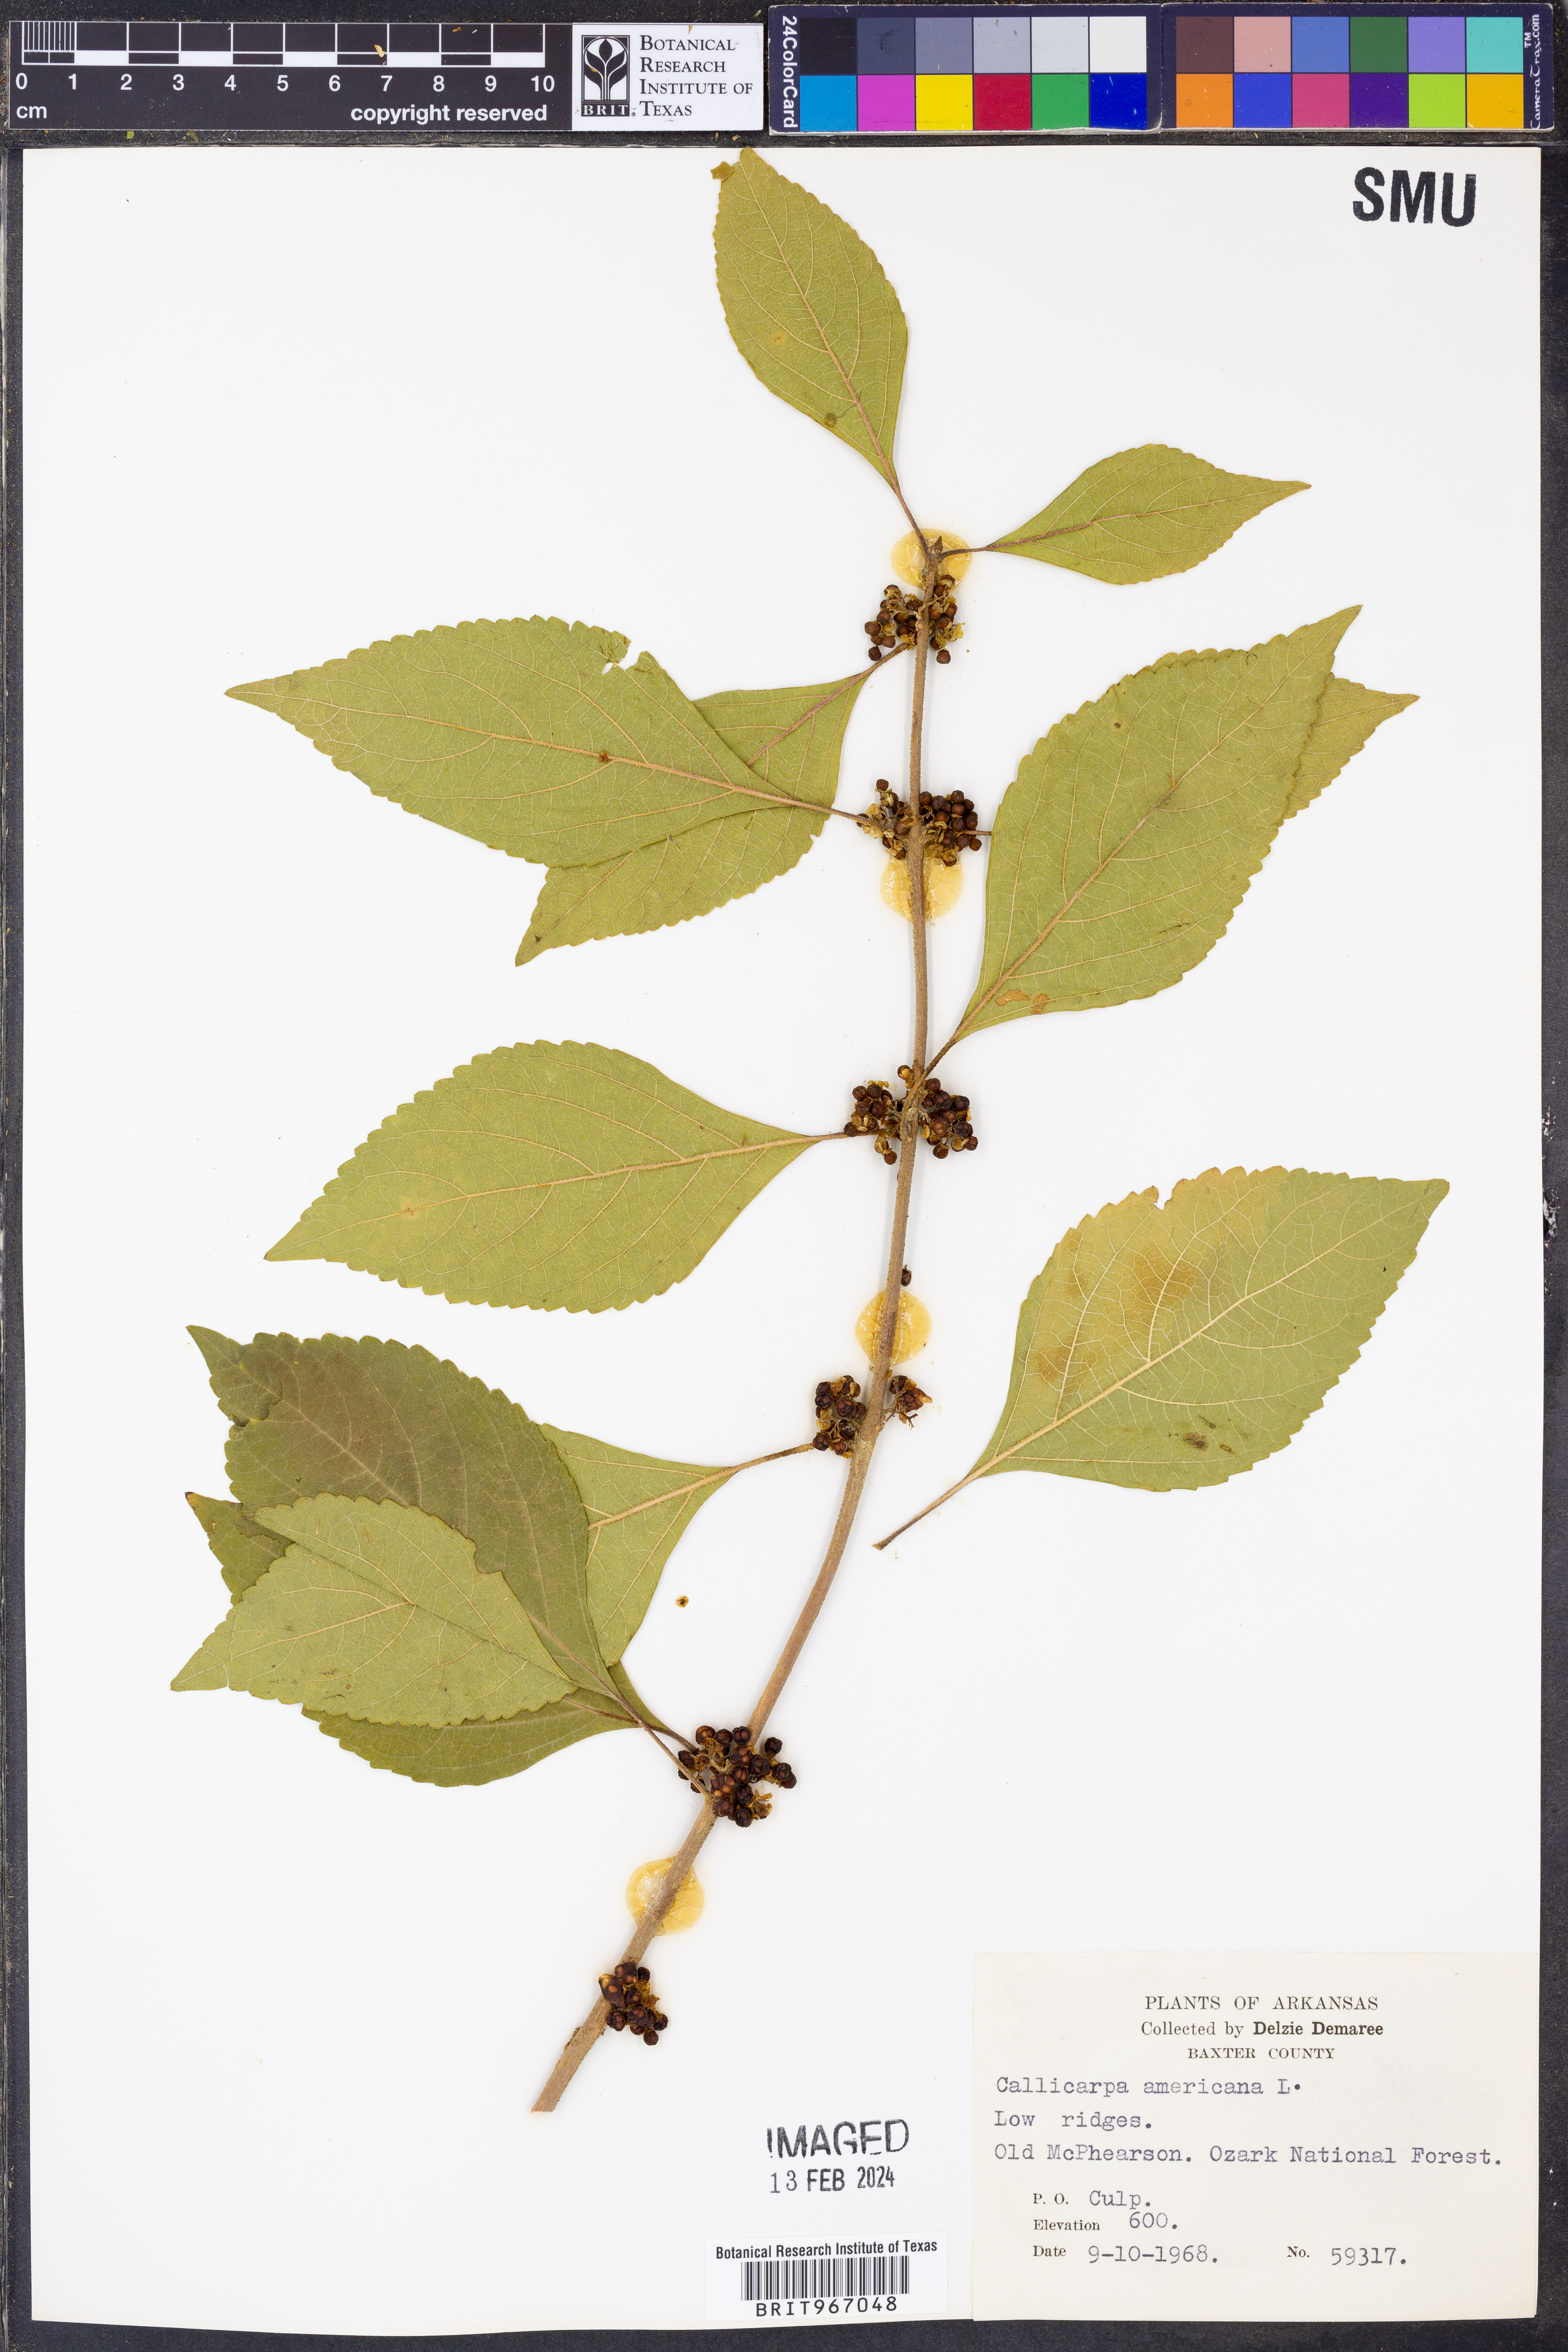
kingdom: Plantae
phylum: Tracheophyta
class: Magnoliopsida
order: Lamiales
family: Lamiaceae
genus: Callicarpa
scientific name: Callicarpa americana
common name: American beautyberry
